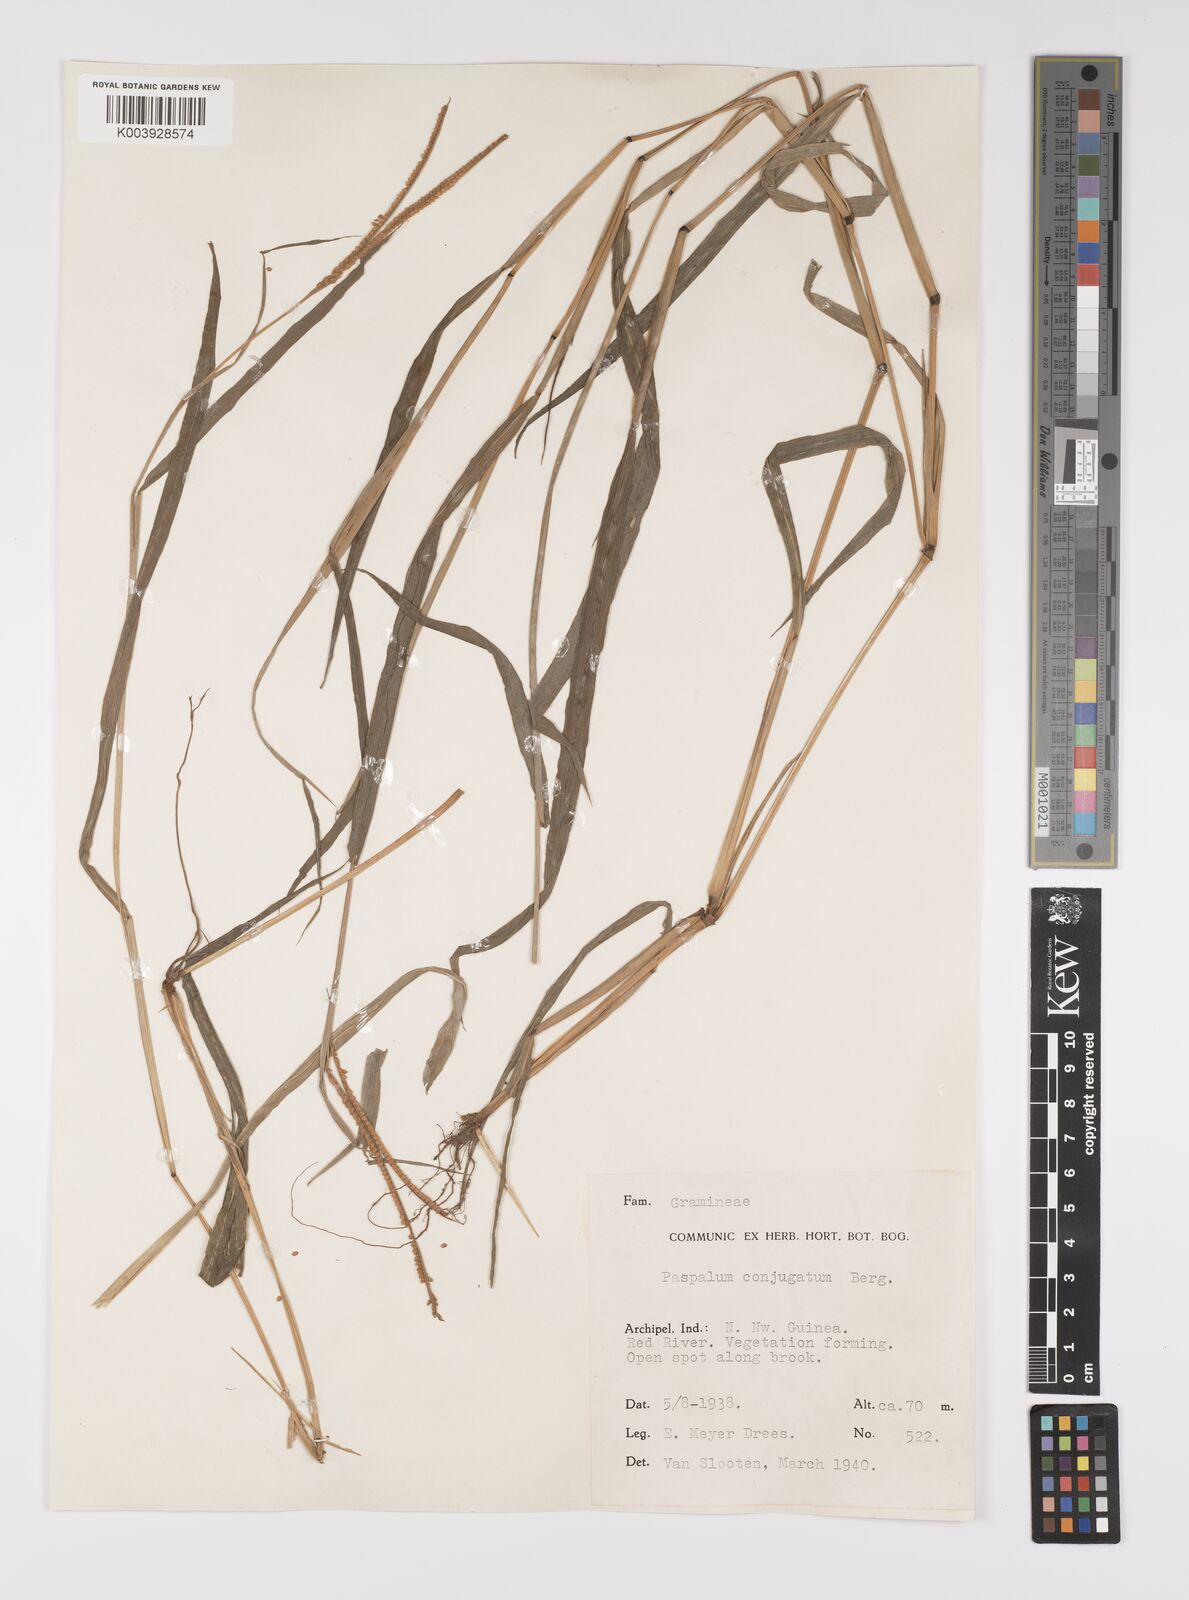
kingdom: Plantae
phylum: Tracheophyta
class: Liliopsida
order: Poales
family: Poaceae
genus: Paspalum
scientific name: Paspalum conjugatum
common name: Hilograss
